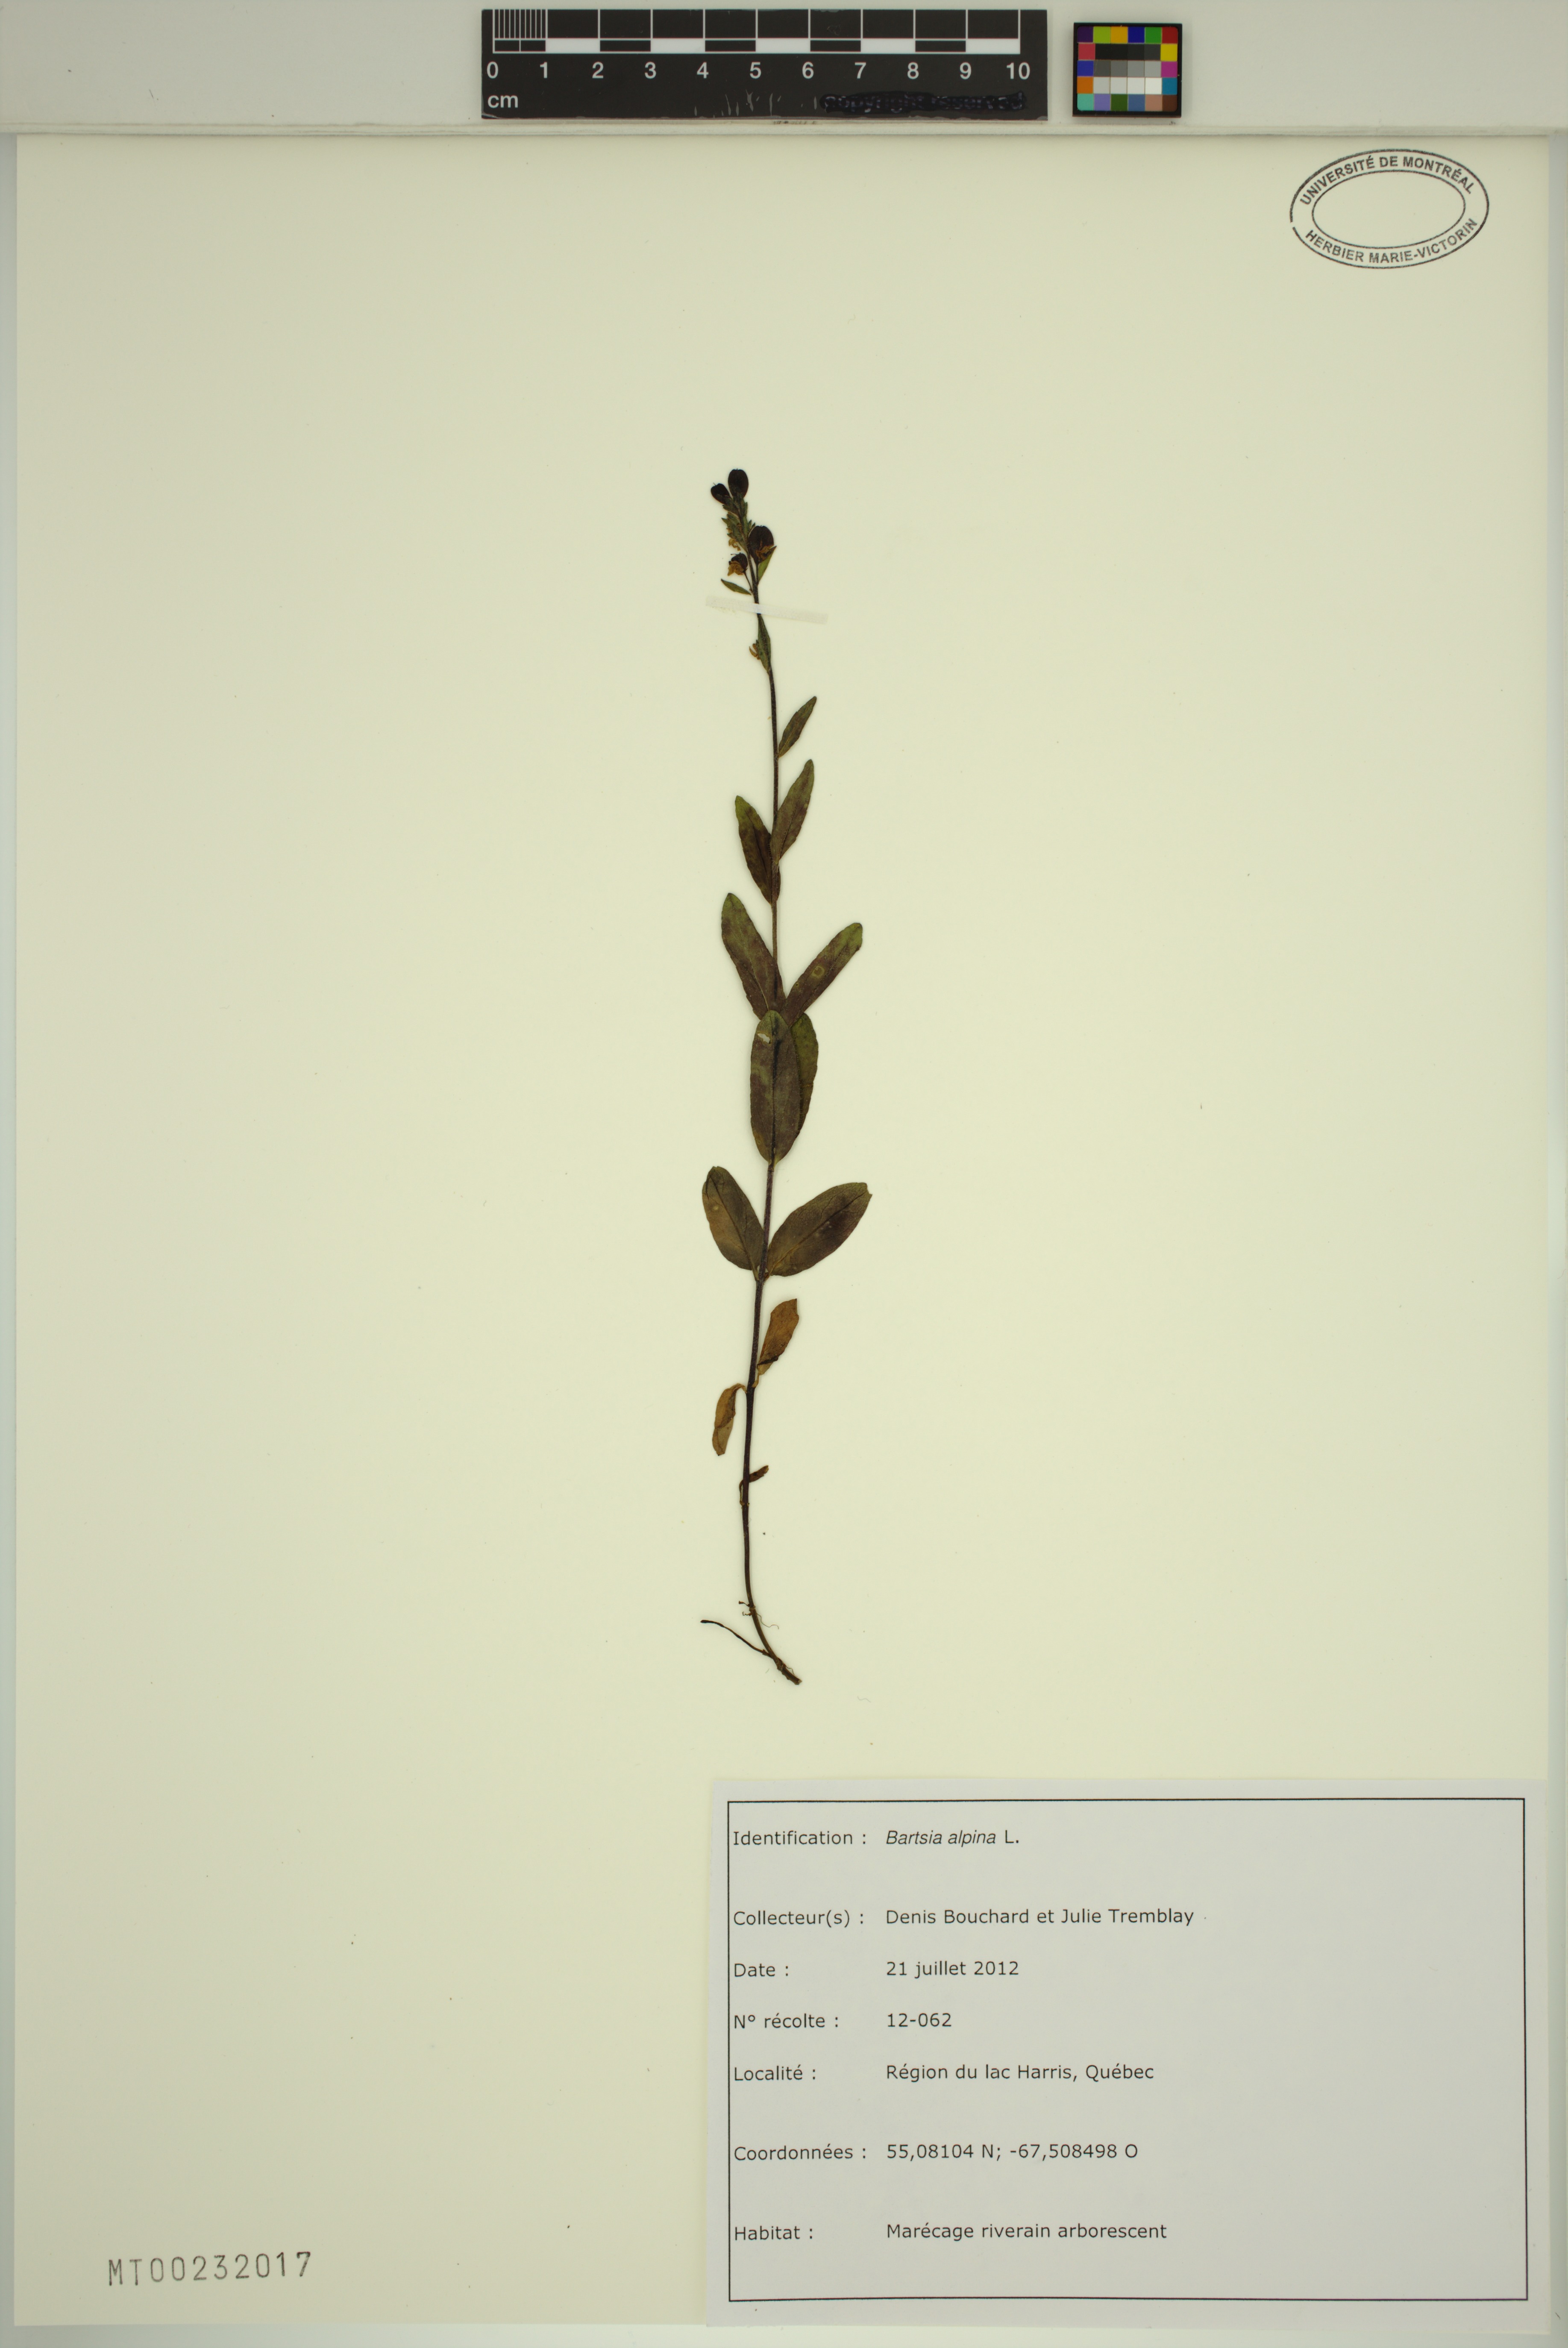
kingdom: Plantae
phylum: Tracheophyta
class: Magnoliopsida
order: Lamiales
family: Orobanchaceae
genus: Bartsia
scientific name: Bartsia alpina
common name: Alpine bartsia
